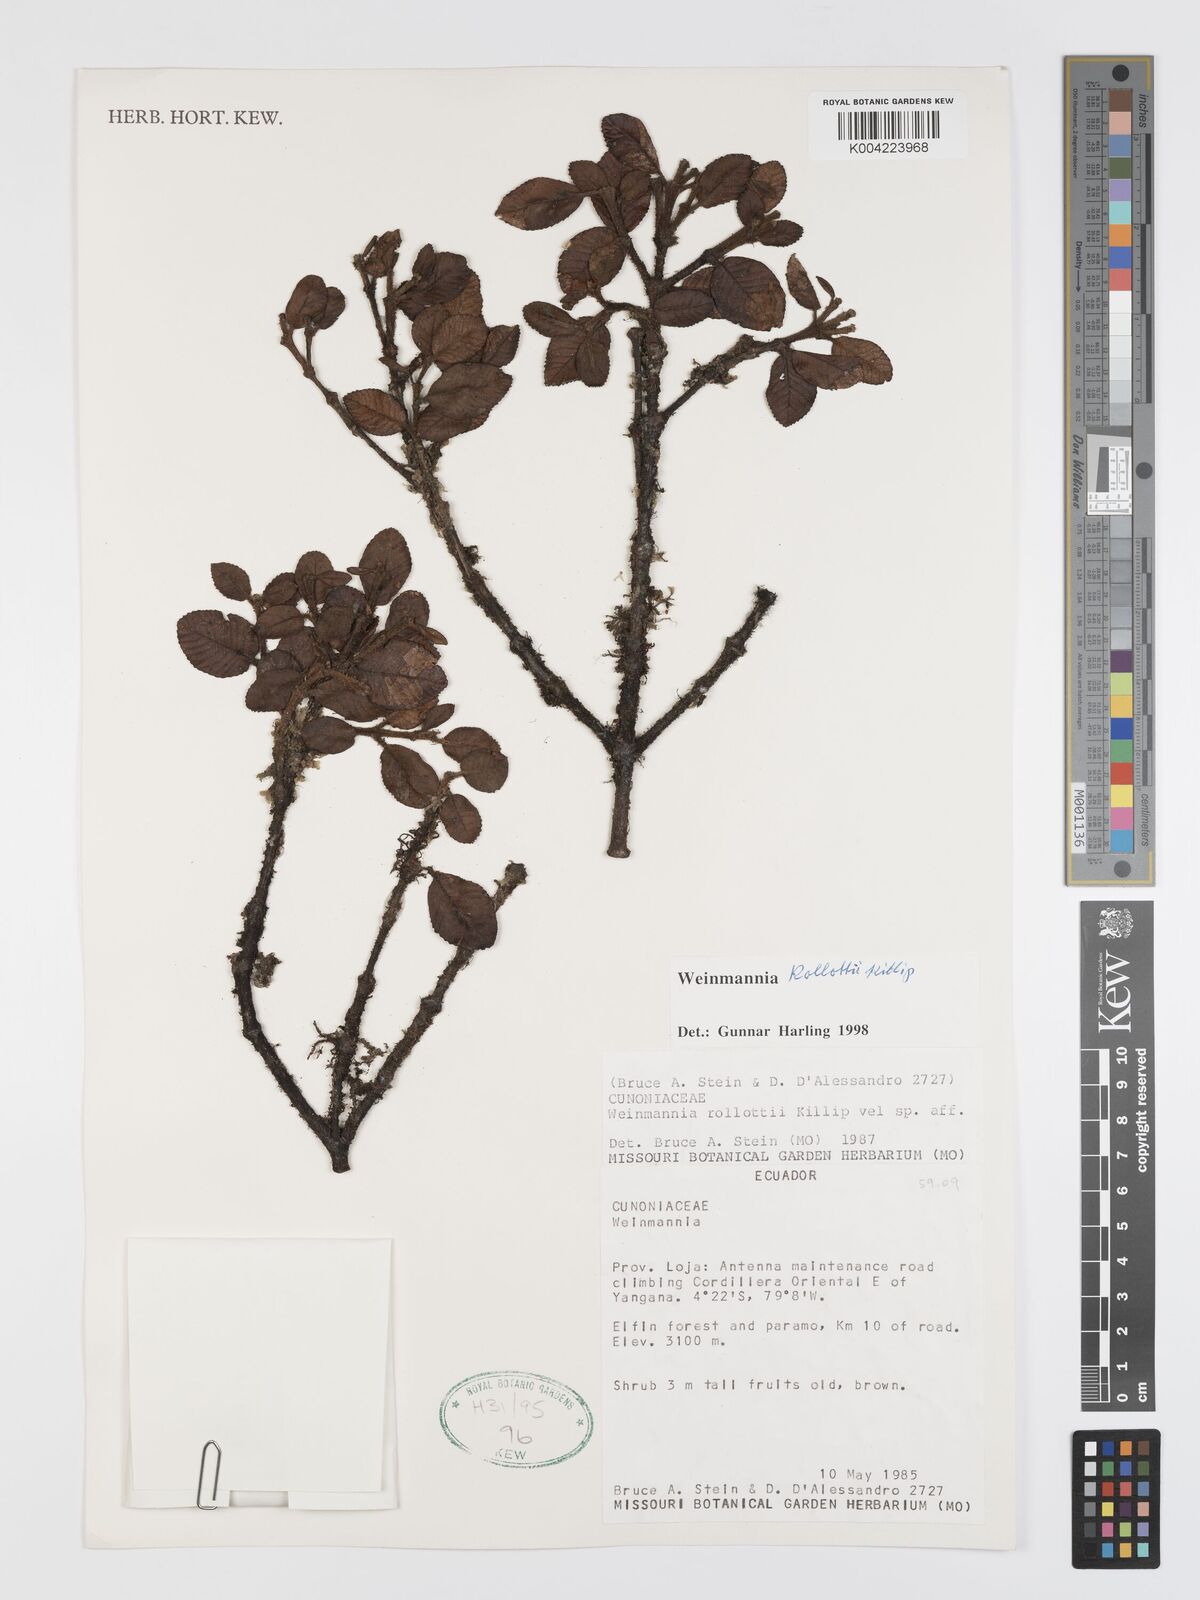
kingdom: Plantae
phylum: Tracheophyta
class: Magnoliopsida
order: Oxalidales
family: Cunoniaceae
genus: Weinmannia
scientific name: Weinmannia rollottii
